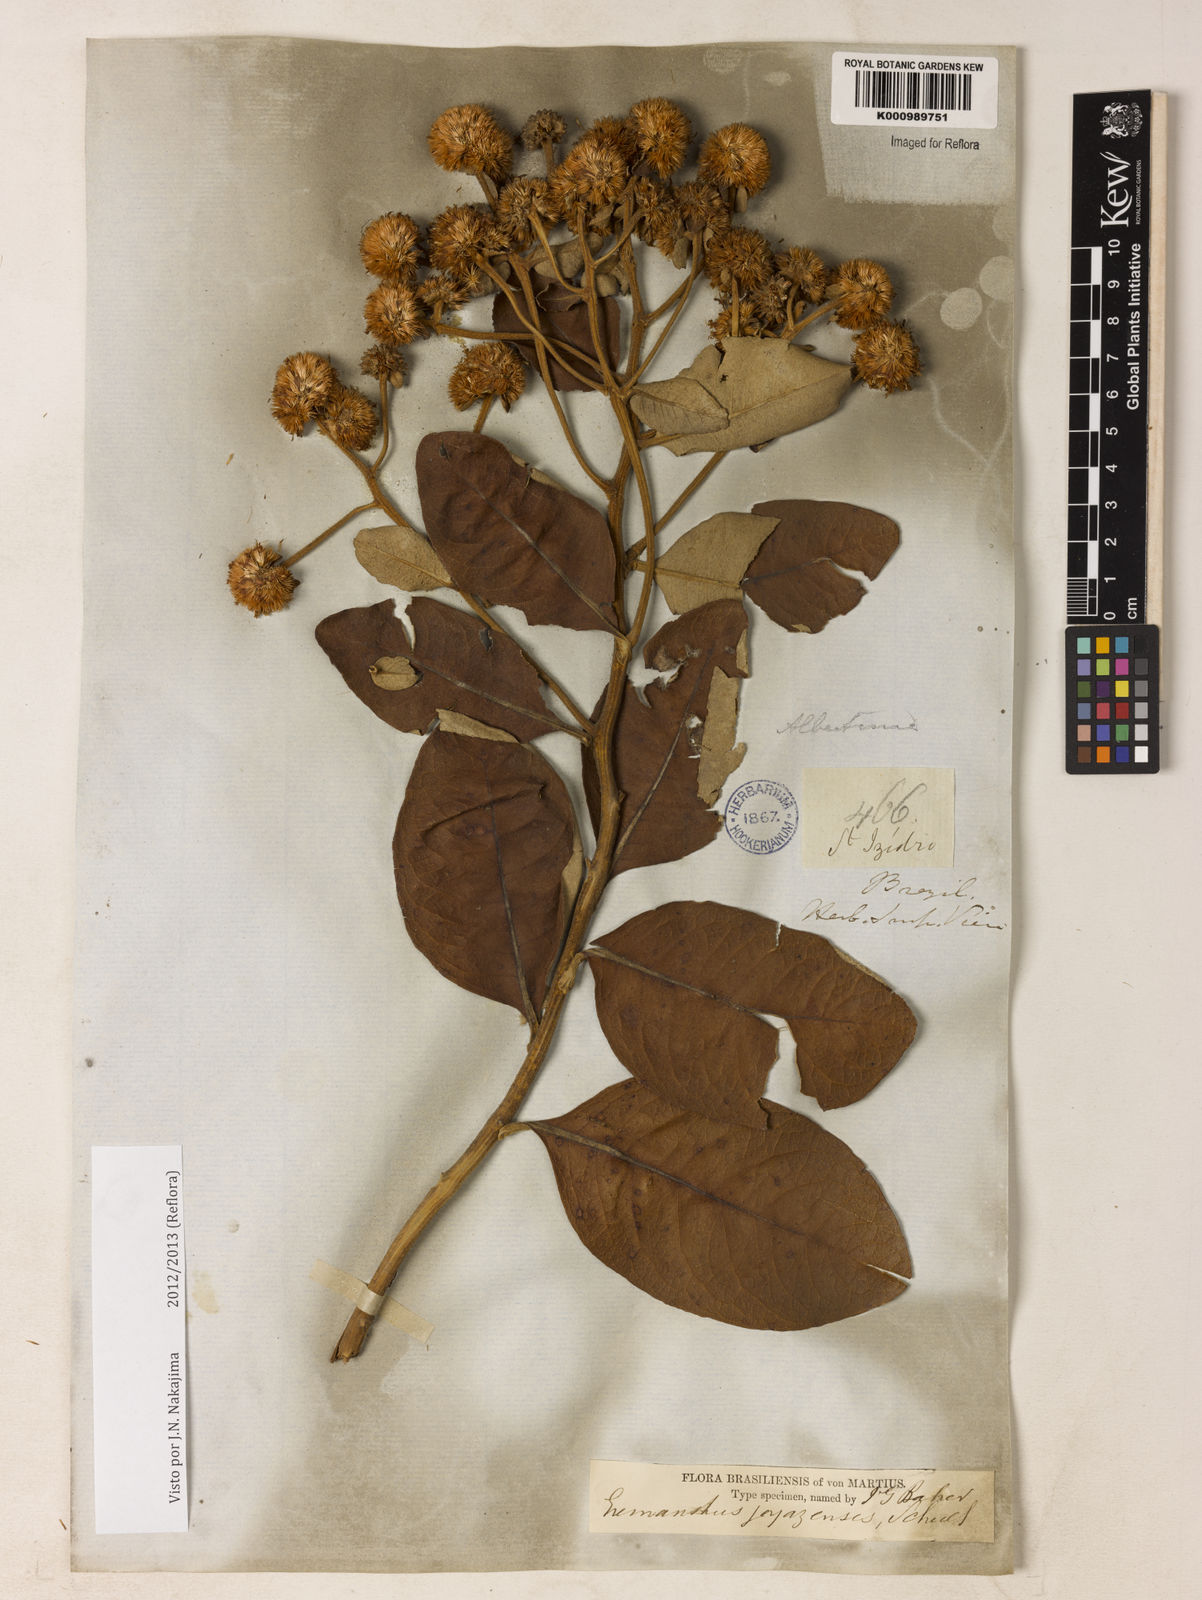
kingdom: Plantae
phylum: Tracheophyta
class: Magnoliopsida
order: Asterales
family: Asteraceae
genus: Eremanthus
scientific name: Eremanthus goyazensis
